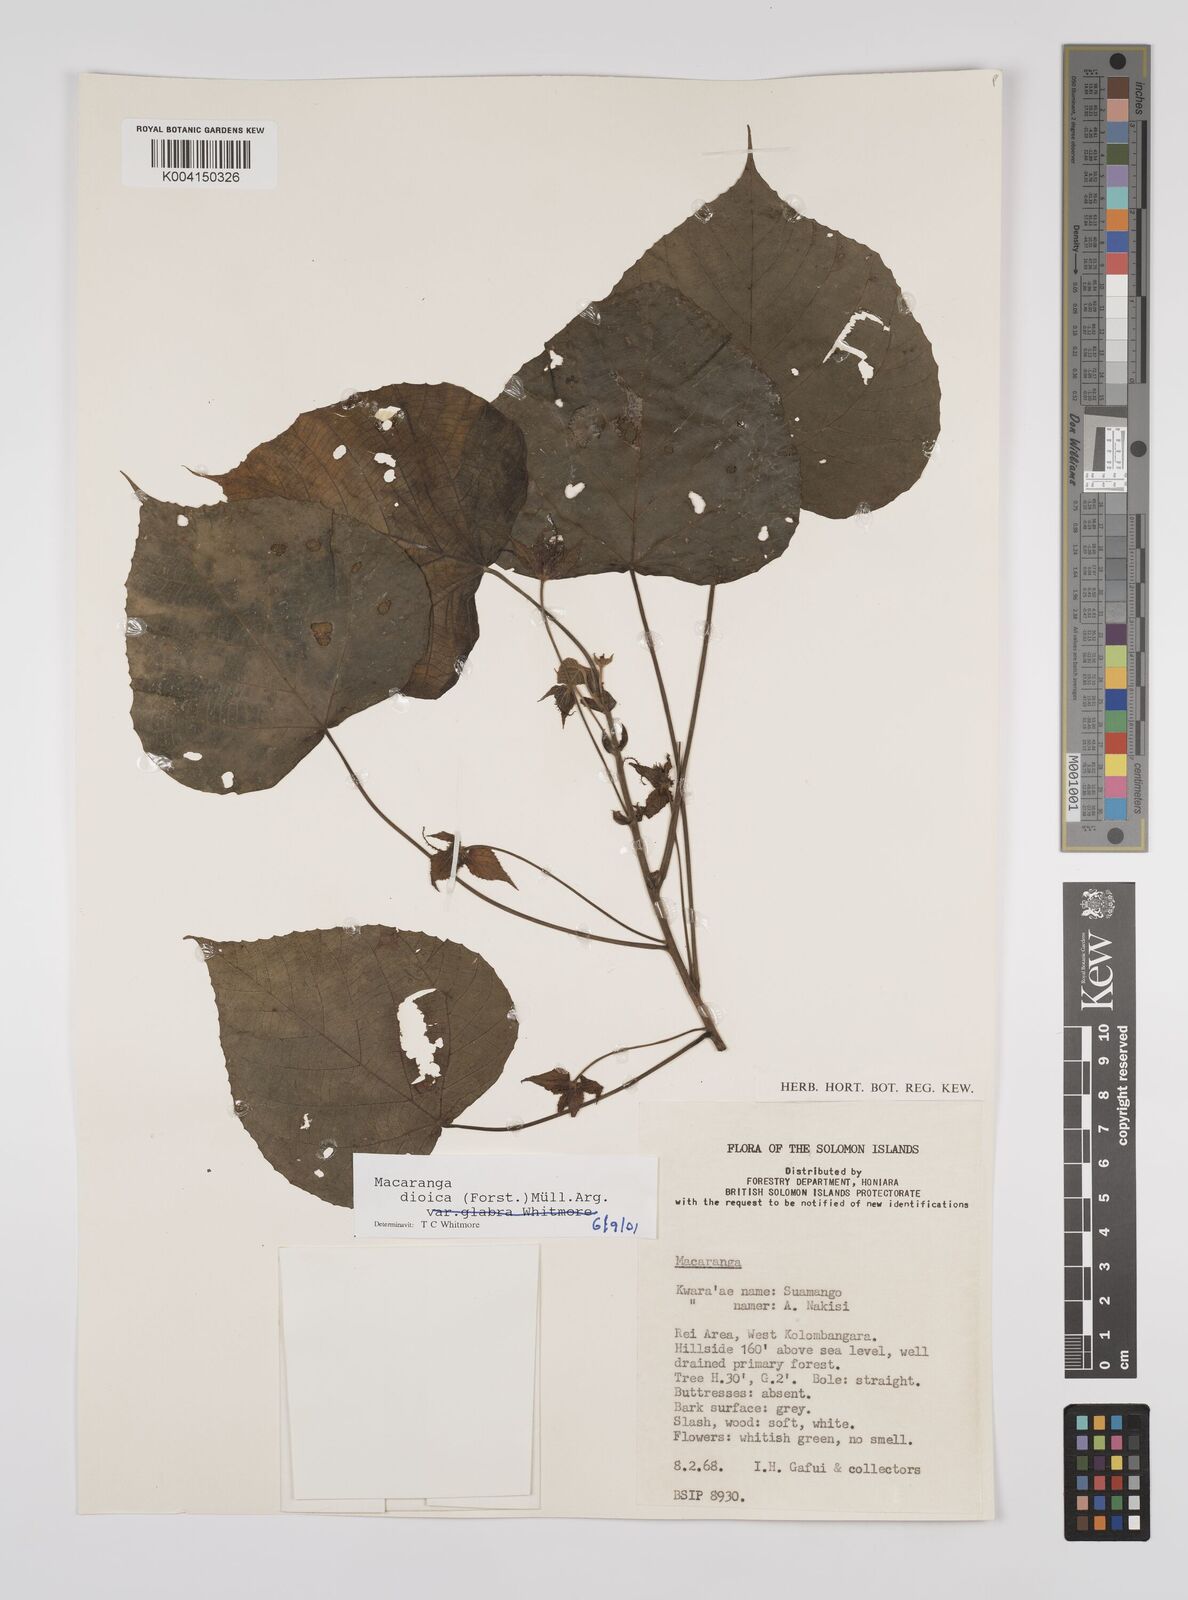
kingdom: Plantae
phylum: Tracheophyta
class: Magnoliopsida
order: Malpighiales
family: Euphorbiaceae
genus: Macaranga
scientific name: Macaranga dioica
